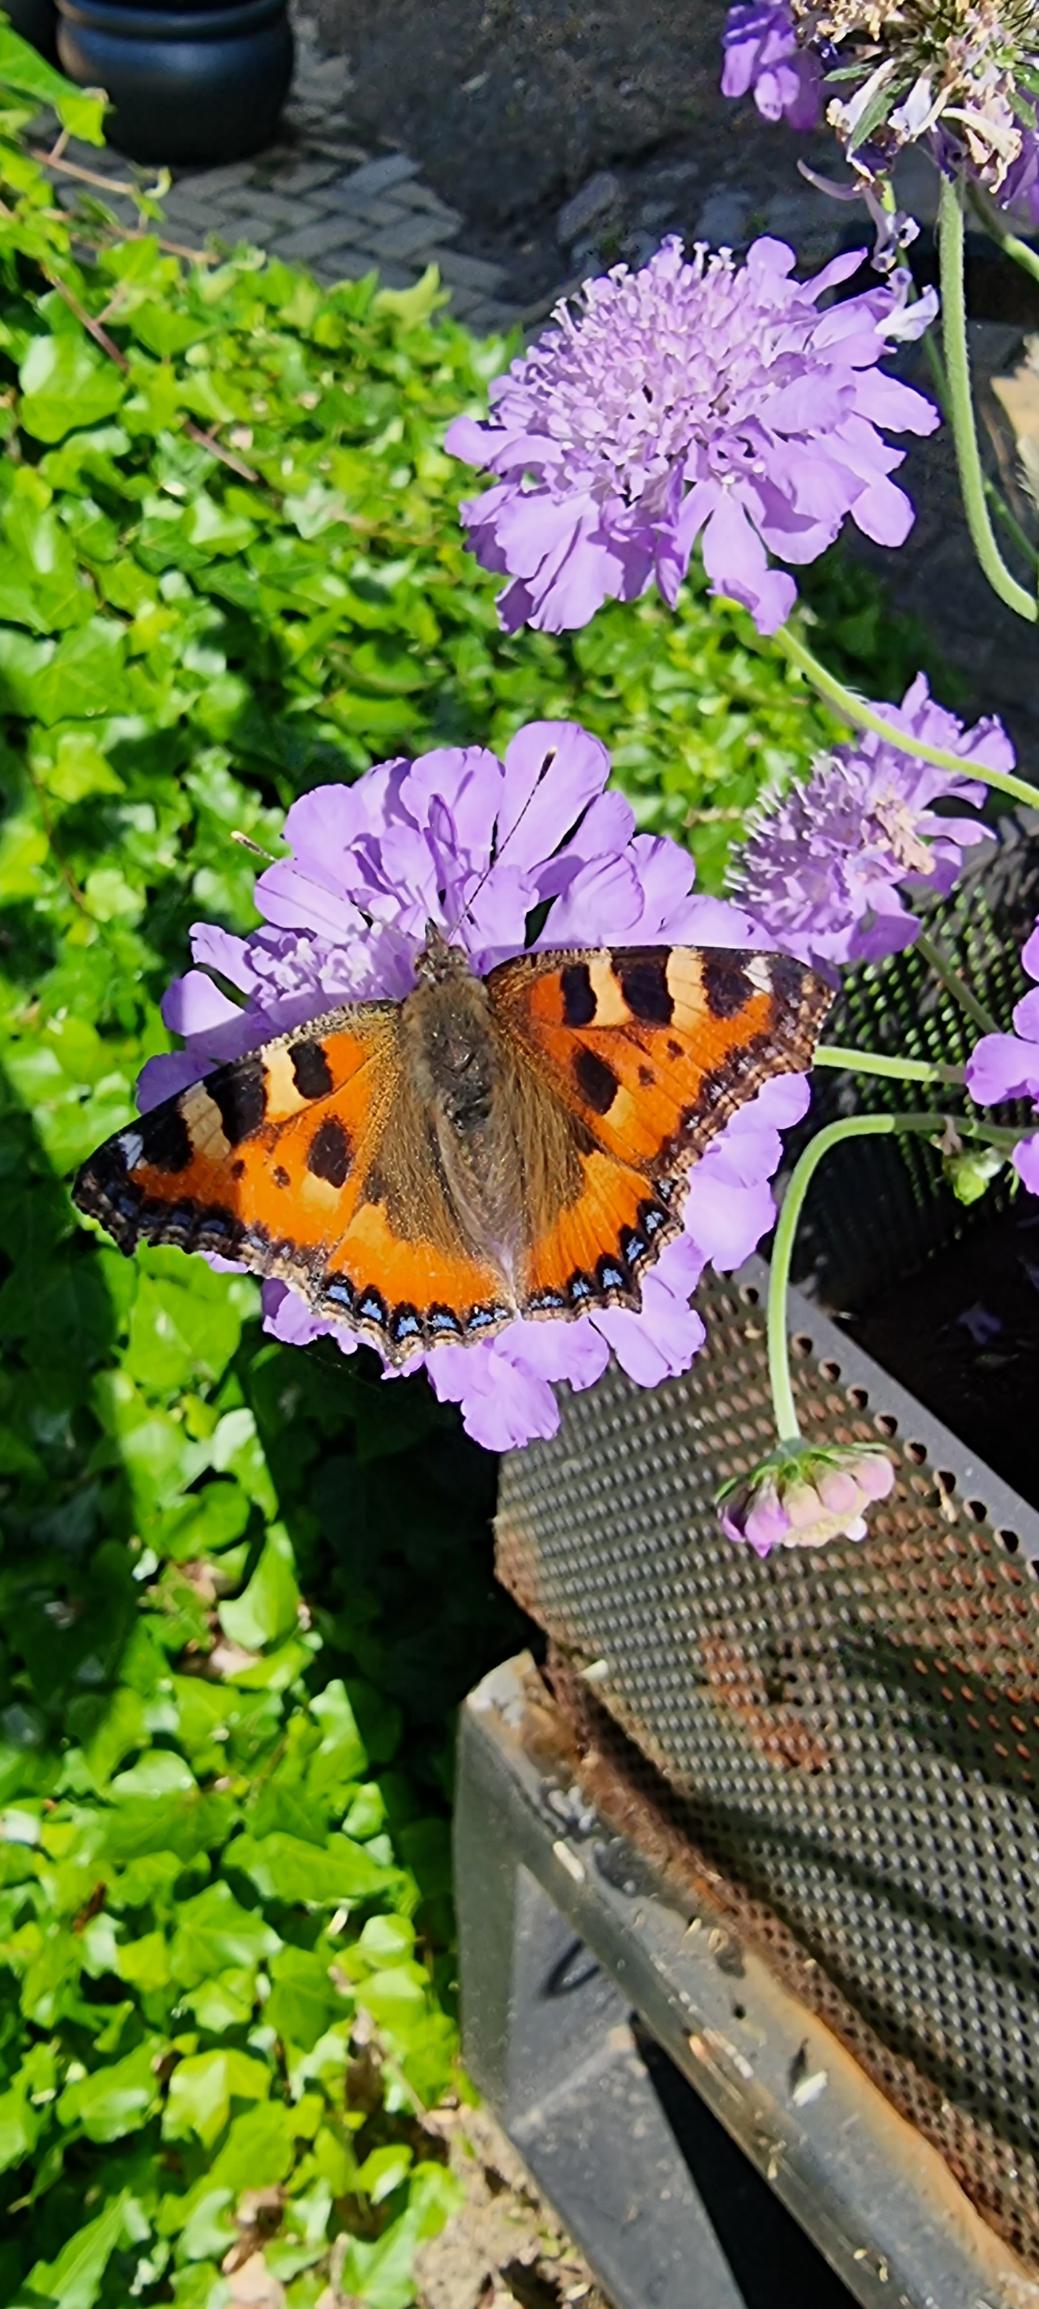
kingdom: Animalia
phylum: Arthropoda
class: Insecta
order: Lepidoptera
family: Nymphalidae
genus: Aglais
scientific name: Aglais urticae
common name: Nældens takvinge
